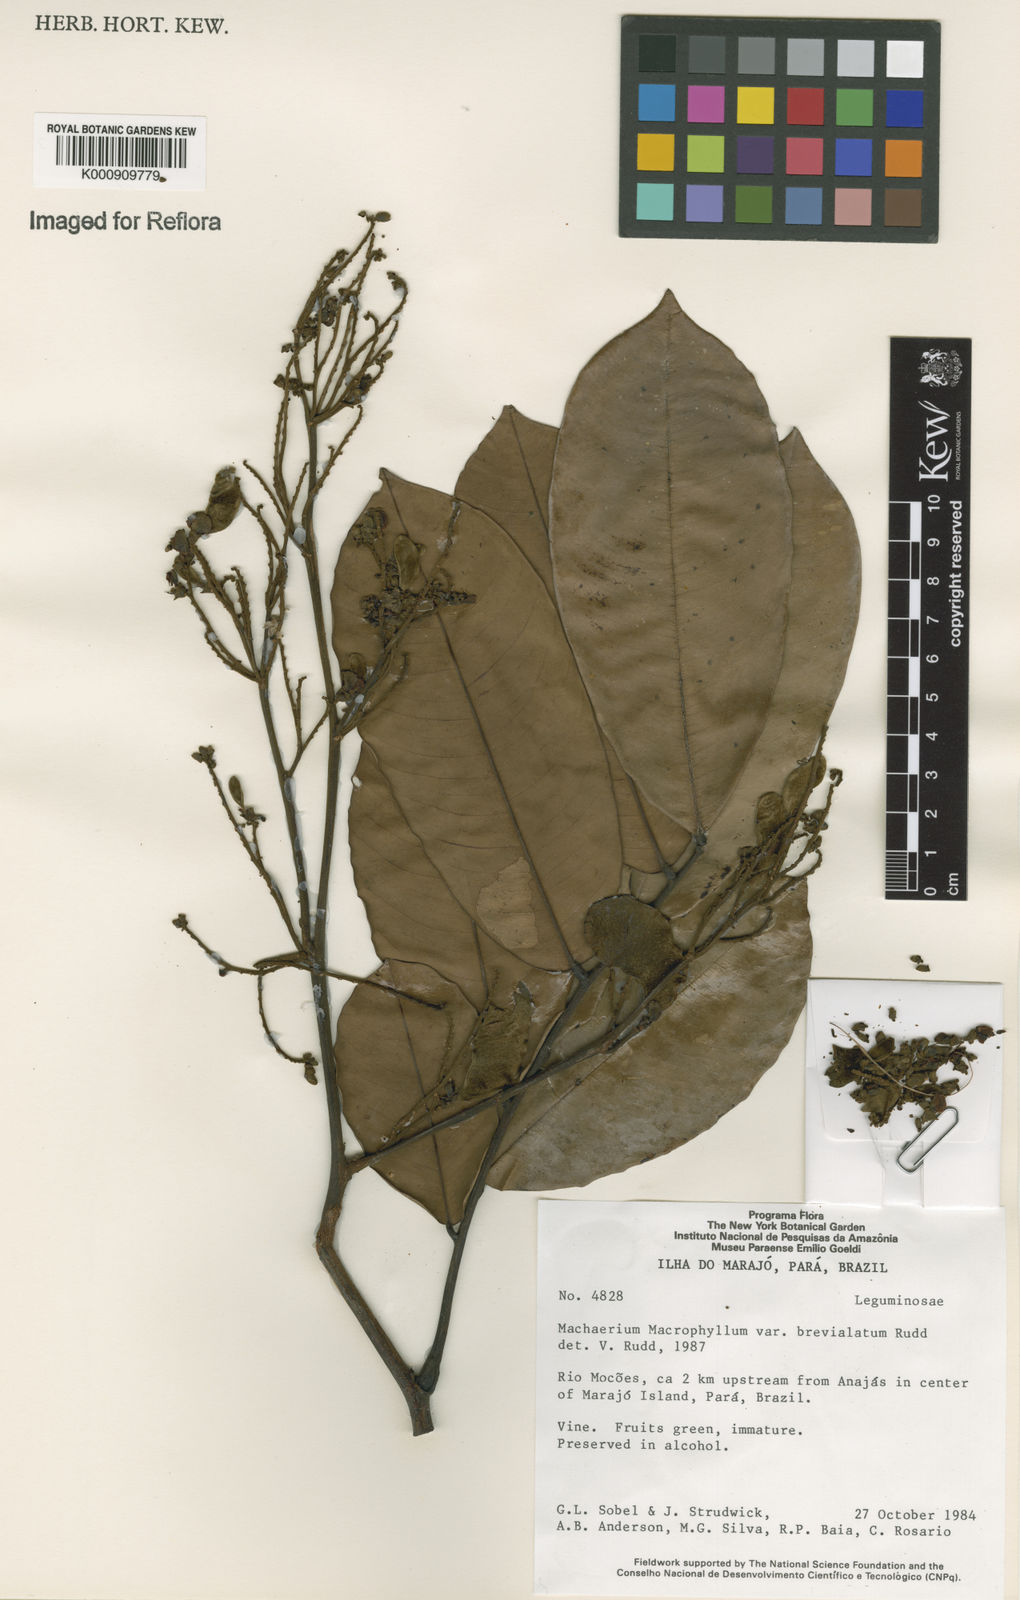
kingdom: Plantae
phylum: Tracheophyta
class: Magnoliopsida
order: Fabales
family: Fabaceae
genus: Machaerium
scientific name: Machaerium macrophyllum
